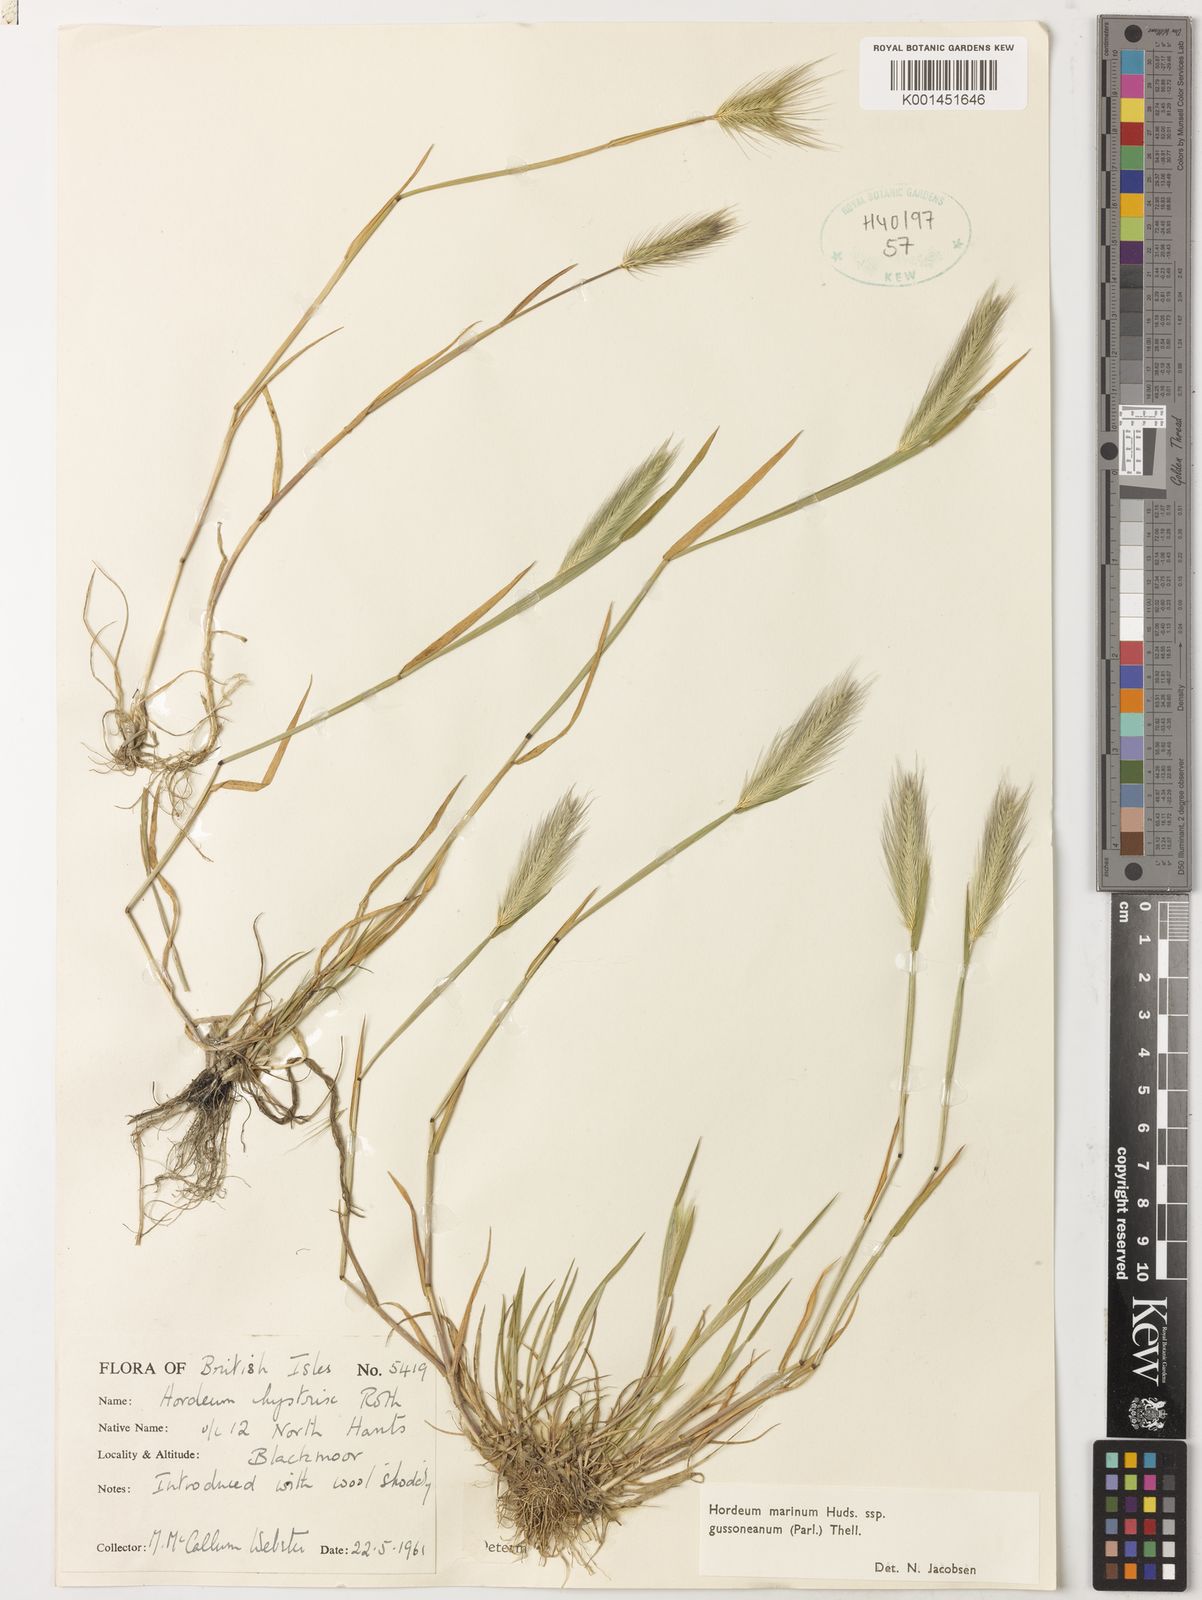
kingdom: Plantae
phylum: Tracheophyta
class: Liliopsida
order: Poales
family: Poaceae
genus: Hordeum
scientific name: Hordeum marinum
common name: Sea barley
